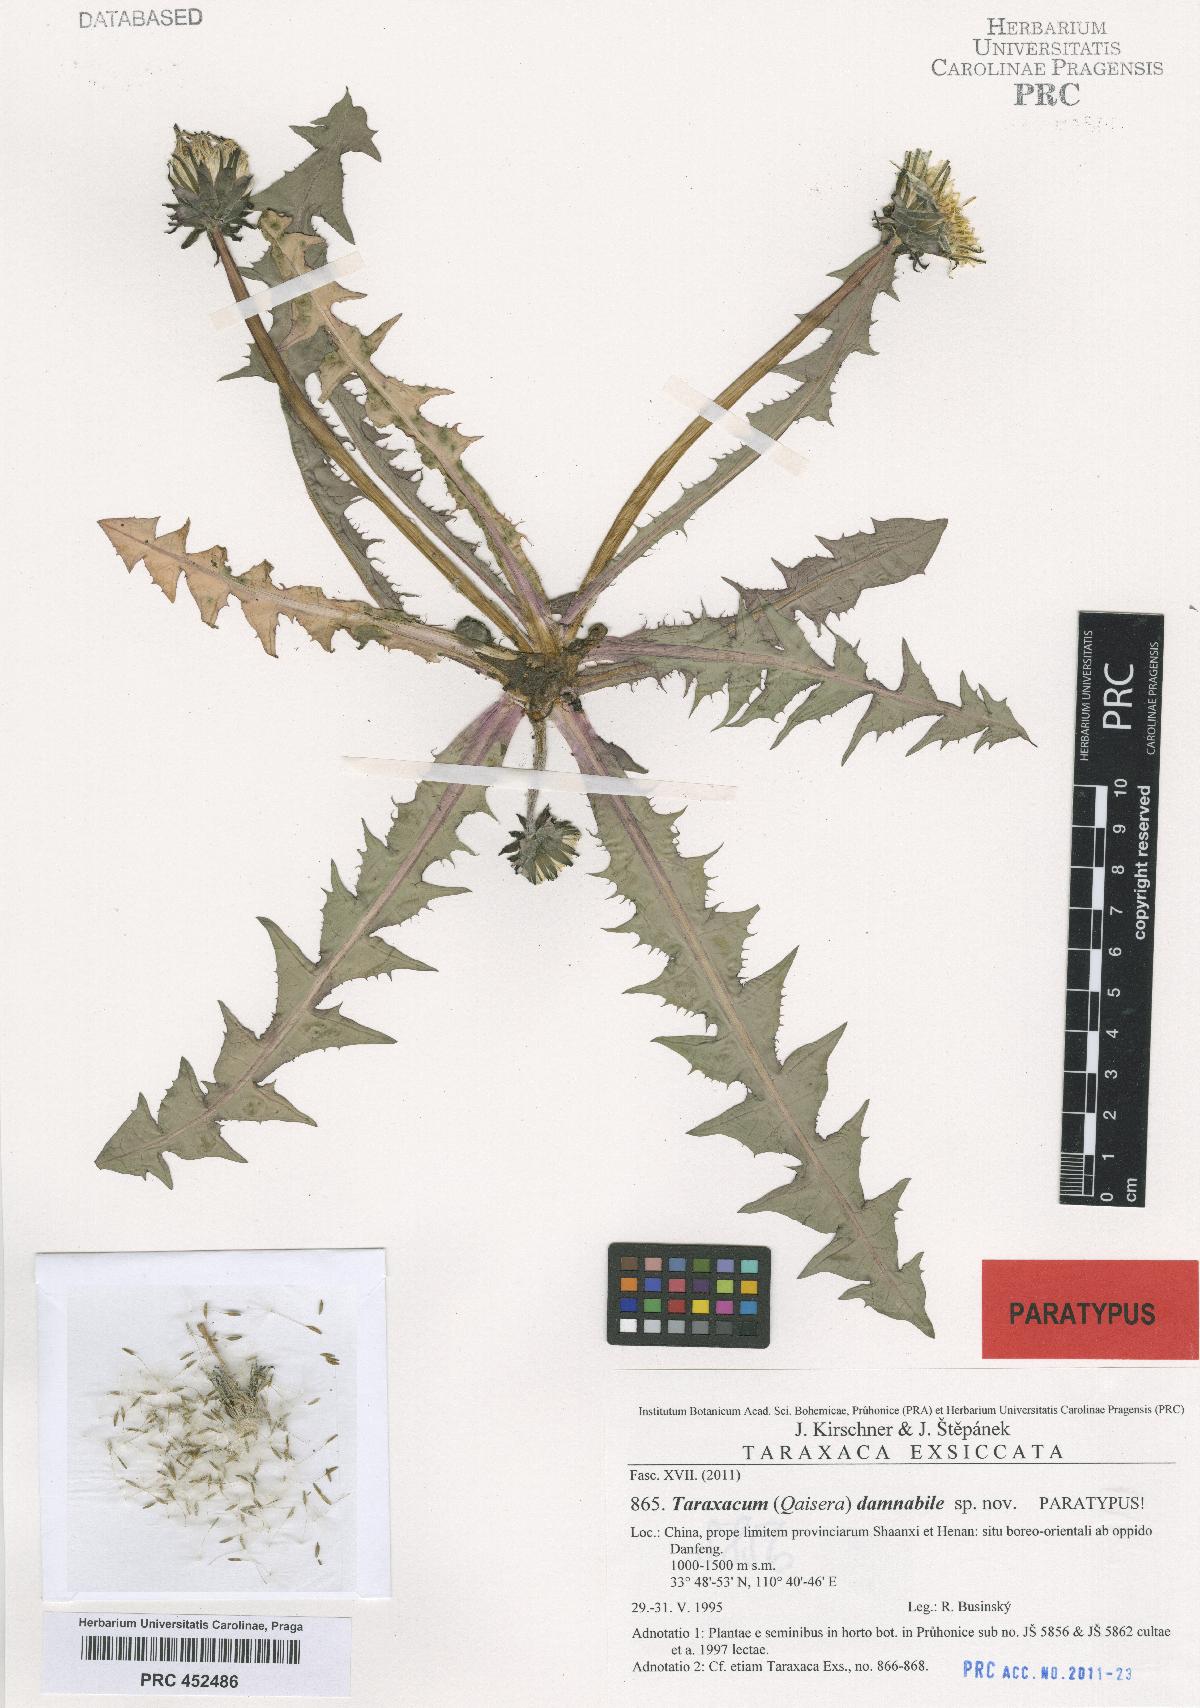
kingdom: Plantae
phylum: Tracheophyta
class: Magnoliopsida
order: Asterales
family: Asteraceae
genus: Taraxacum
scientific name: Taraxacum damnabile
